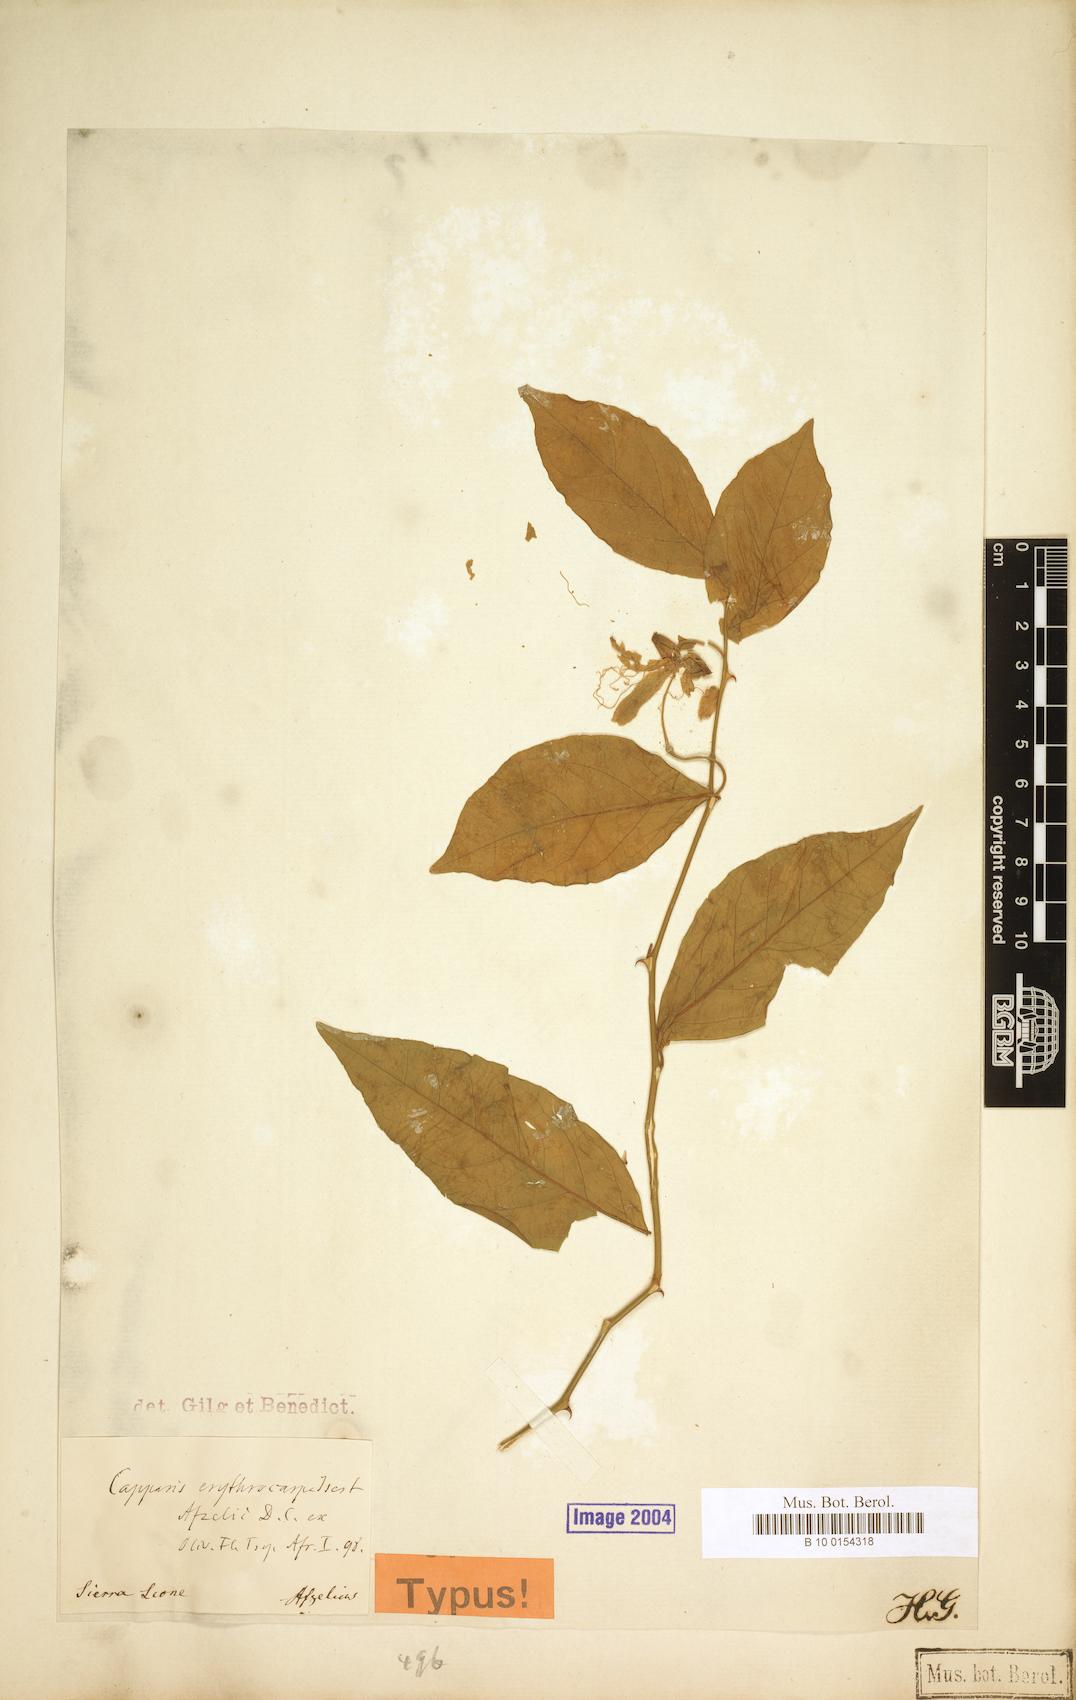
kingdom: Plantae
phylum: Tracheophyta
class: Magnoliopsida
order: Brassicales
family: Capparaceae
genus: Capparis
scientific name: Capparis erythrocarpos
